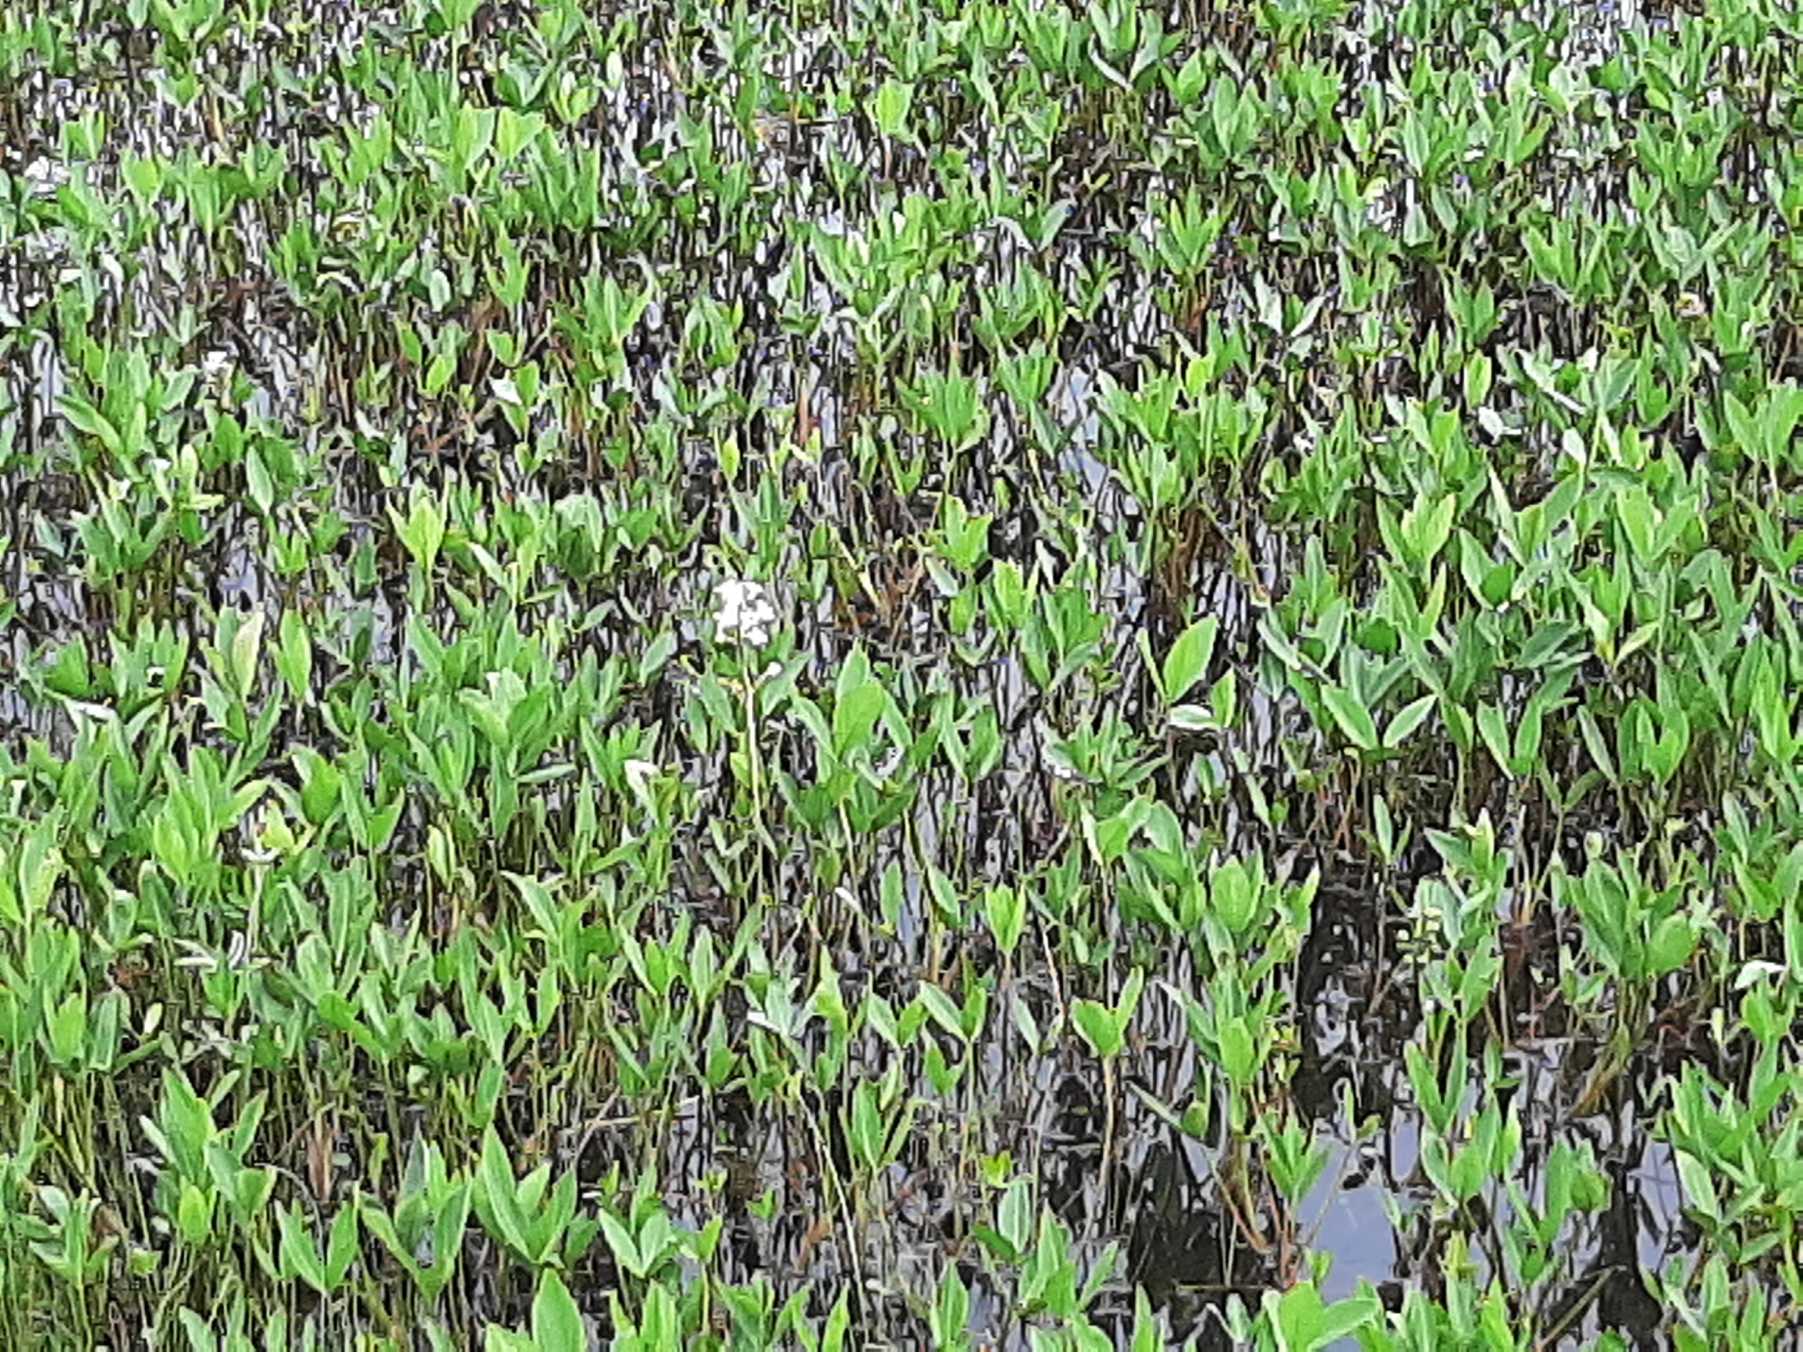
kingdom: Plantae
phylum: Tracheophyta
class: Magnoliopsida
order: Asterales
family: Menyanthaceae
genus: Menyanthes
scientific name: Menyanthes trifoliata
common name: Bukkeblad
